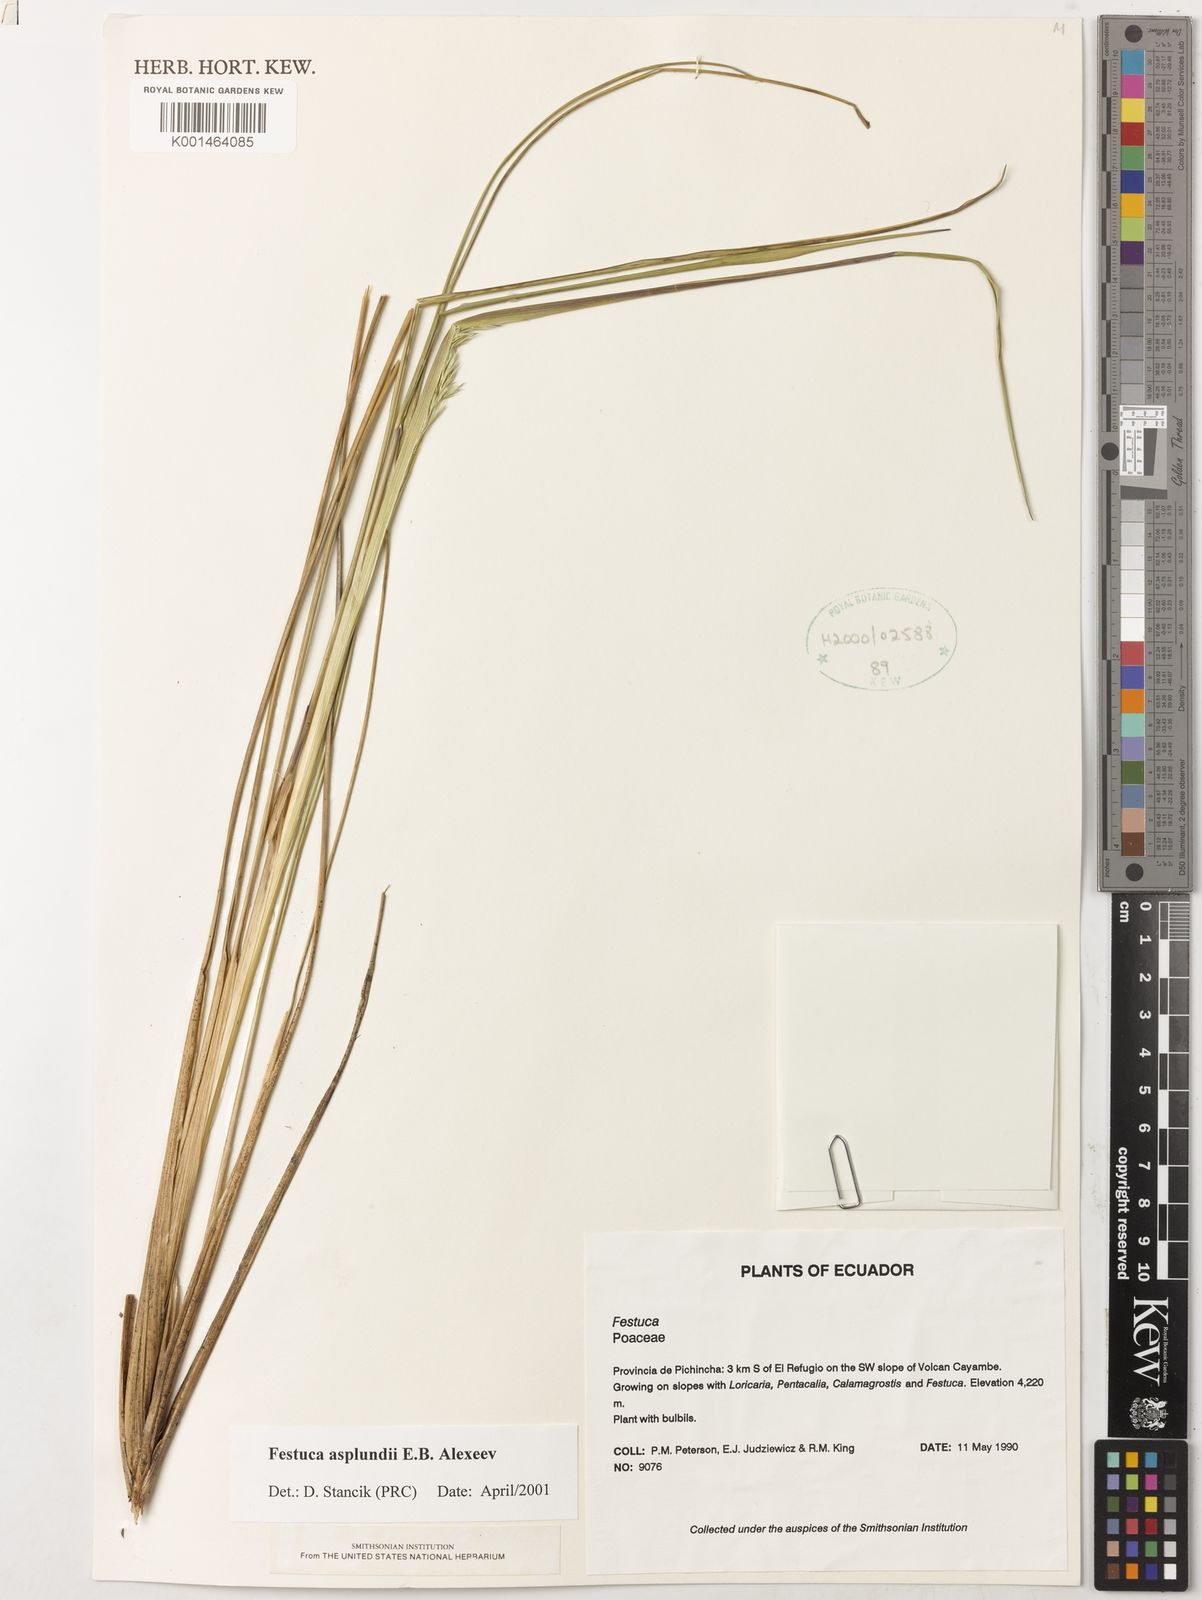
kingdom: Plantae
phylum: Tracheophyta
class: Liliopsida
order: Poales
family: Poaceae
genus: Festuca
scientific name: Festuca asplundii
